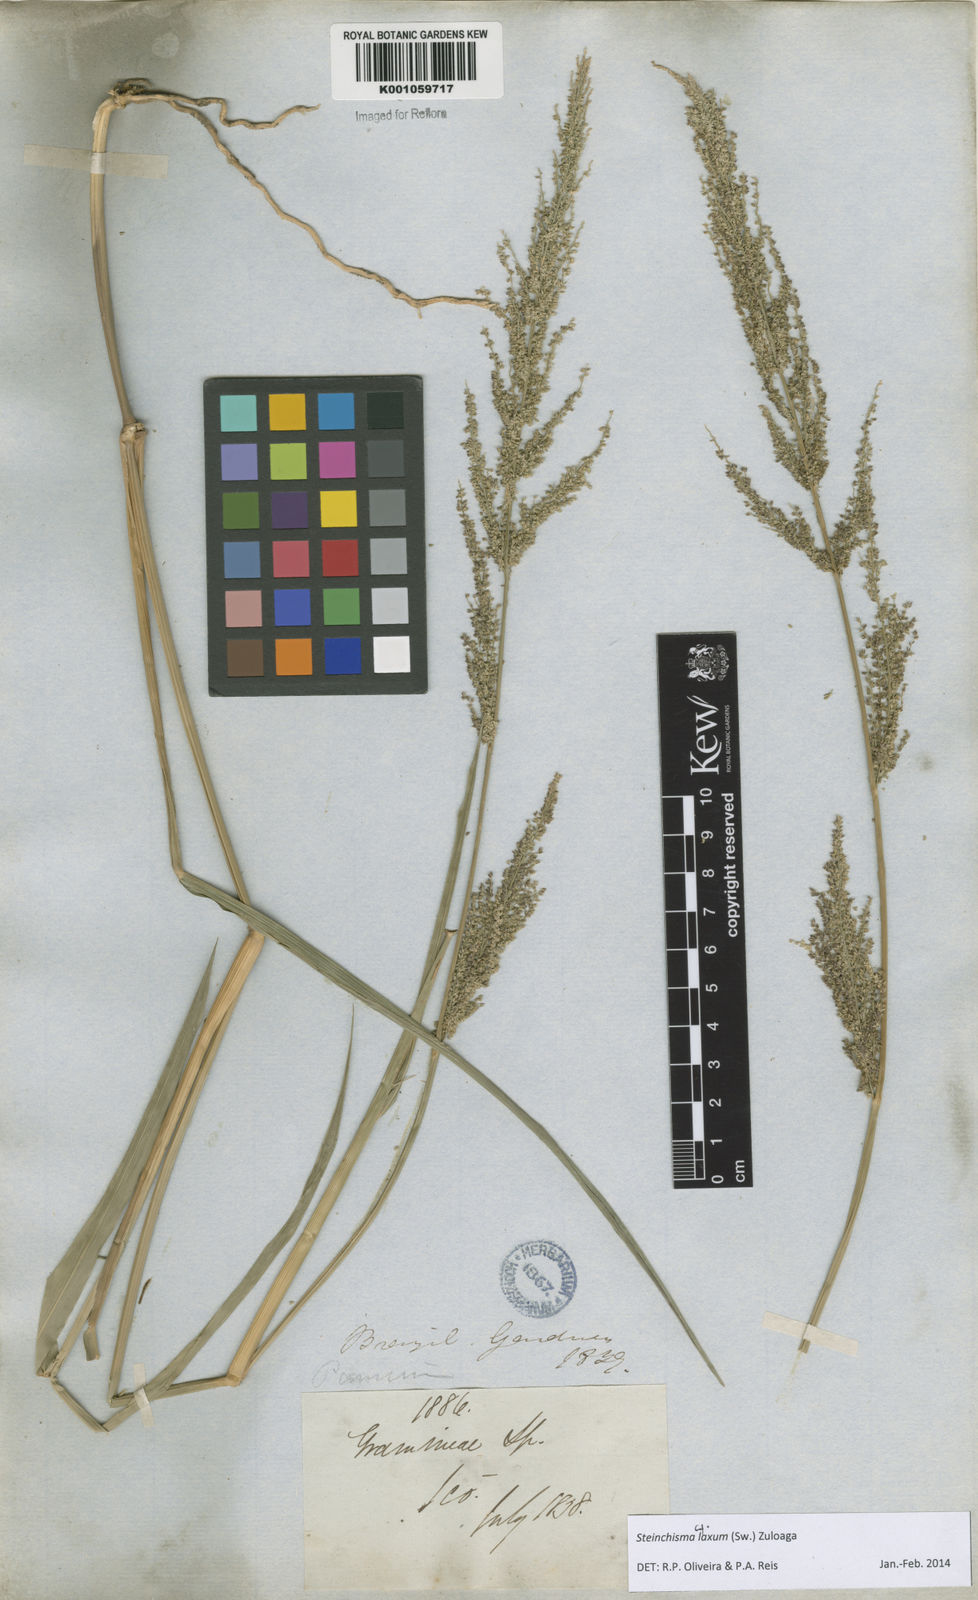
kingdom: Plantae
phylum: Tracheophyta
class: Liliopsida
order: Poales
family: Poaceae
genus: Steinchisma
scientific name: Steinchisma laxum
